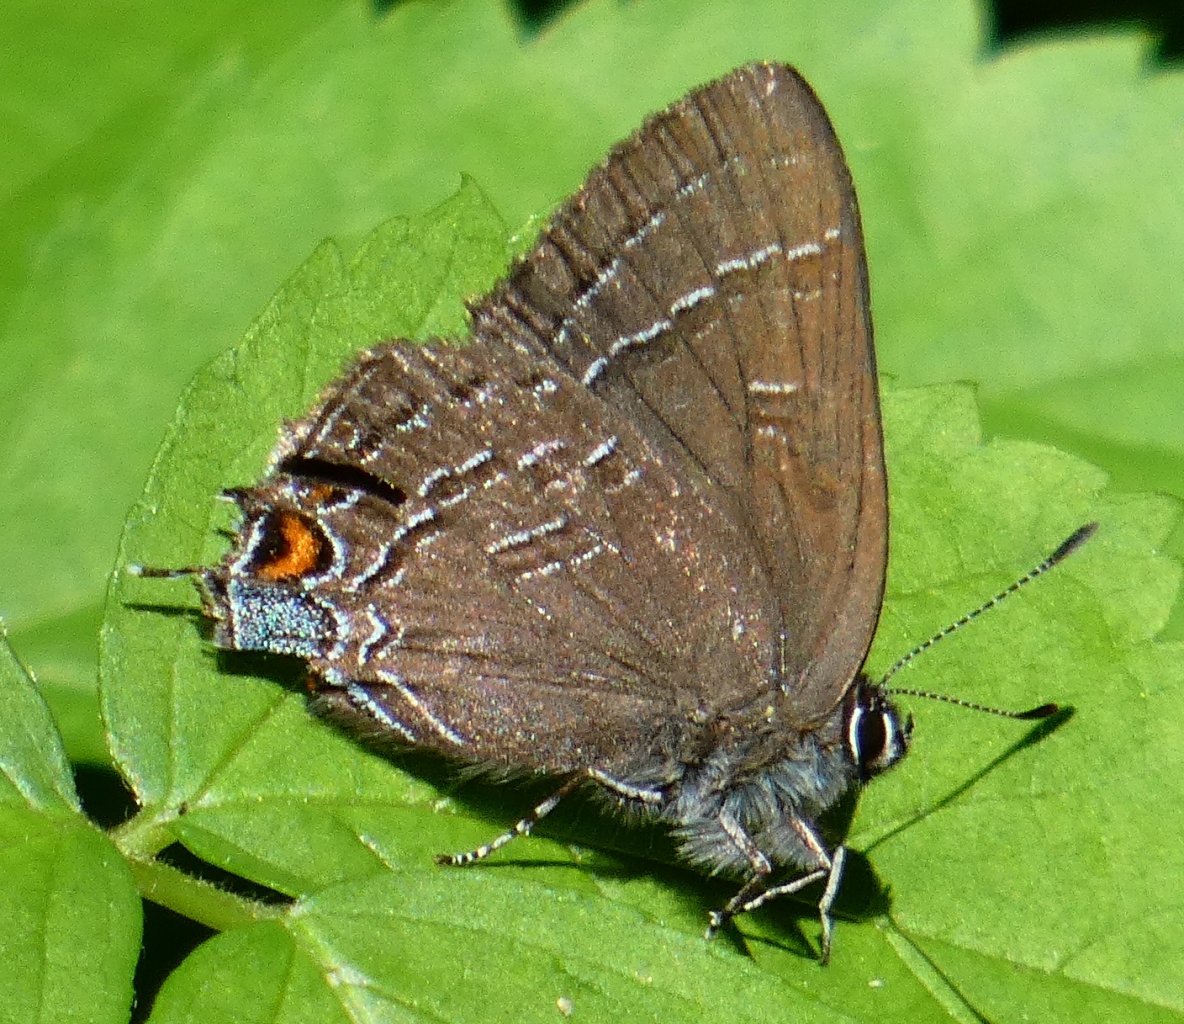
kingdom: Animalia
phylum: Arthropoda
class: Insecta
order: Lepidoptera
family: Lycaenidae
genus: Satyrium
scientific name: Satyrium calanus
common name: Banded Hairstreak
